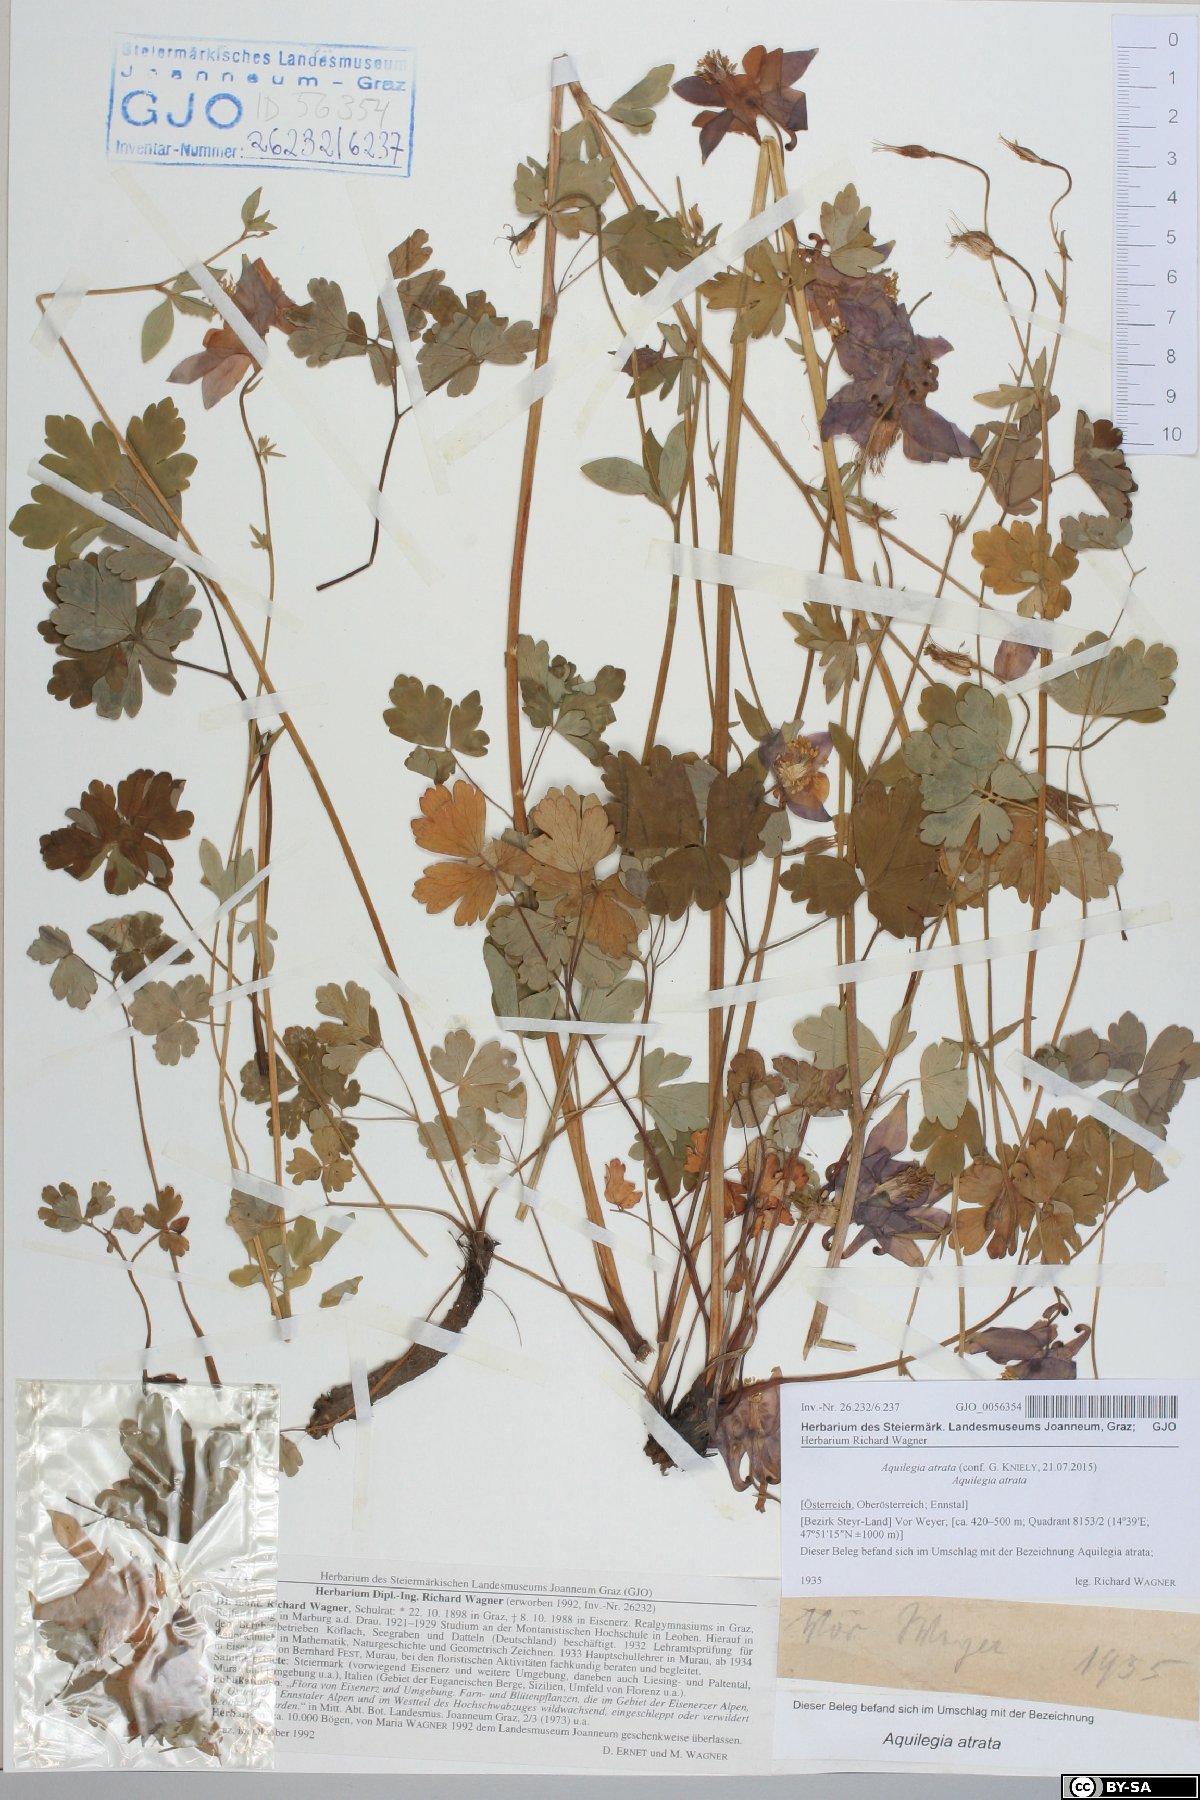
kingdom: Plantae
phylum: Tracheophyta
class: Magnoliopsida
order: Ranunculales
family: Ranunculaceae
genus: Aquilegia
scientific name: Aquilegia atrata
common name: Dark columbine
